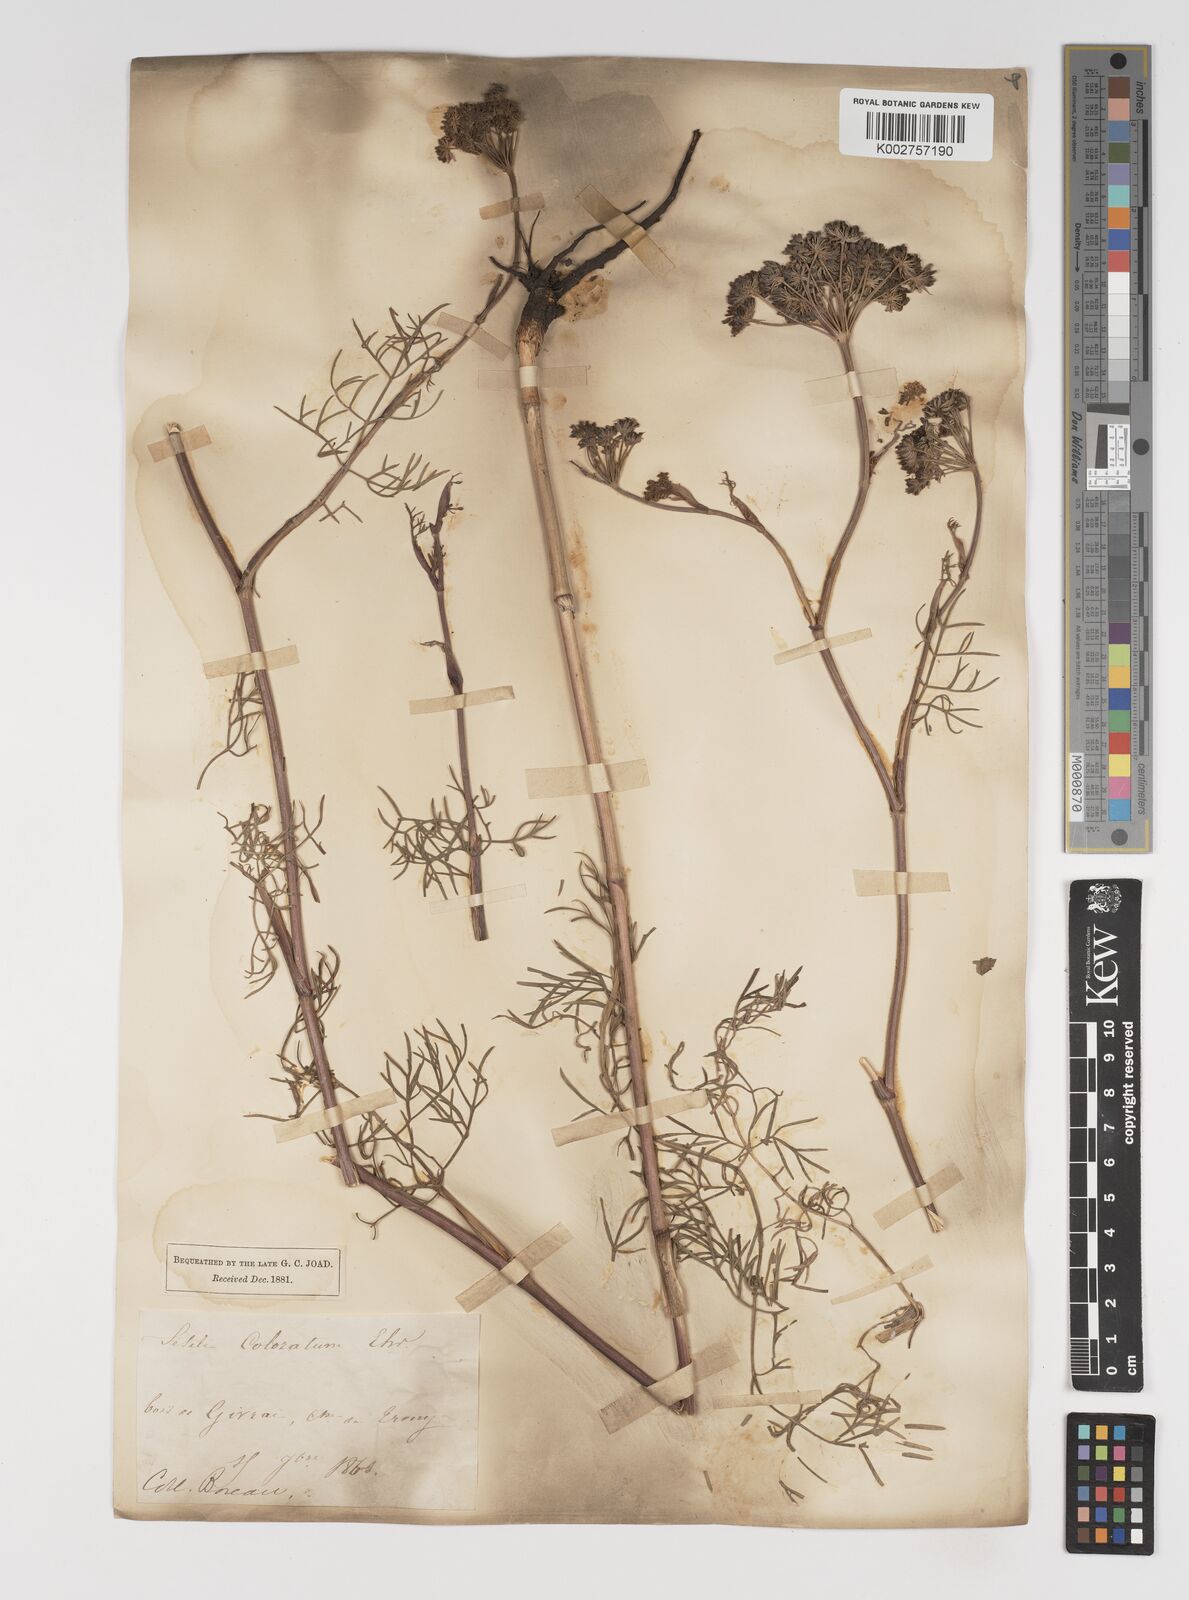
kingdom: Plantae
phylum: Tracheophyta
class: Magnoliopsida
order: Apiales
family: Apiaceae
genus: Seseli
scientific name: Seseli annuum
